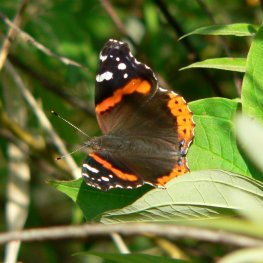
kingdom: Animalia
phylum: Arthropoda
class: Insecta
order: Lepidoptera
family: Nymphalidae
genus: Vanessa
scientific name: Vanessa atalanta
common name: Red Admiral
